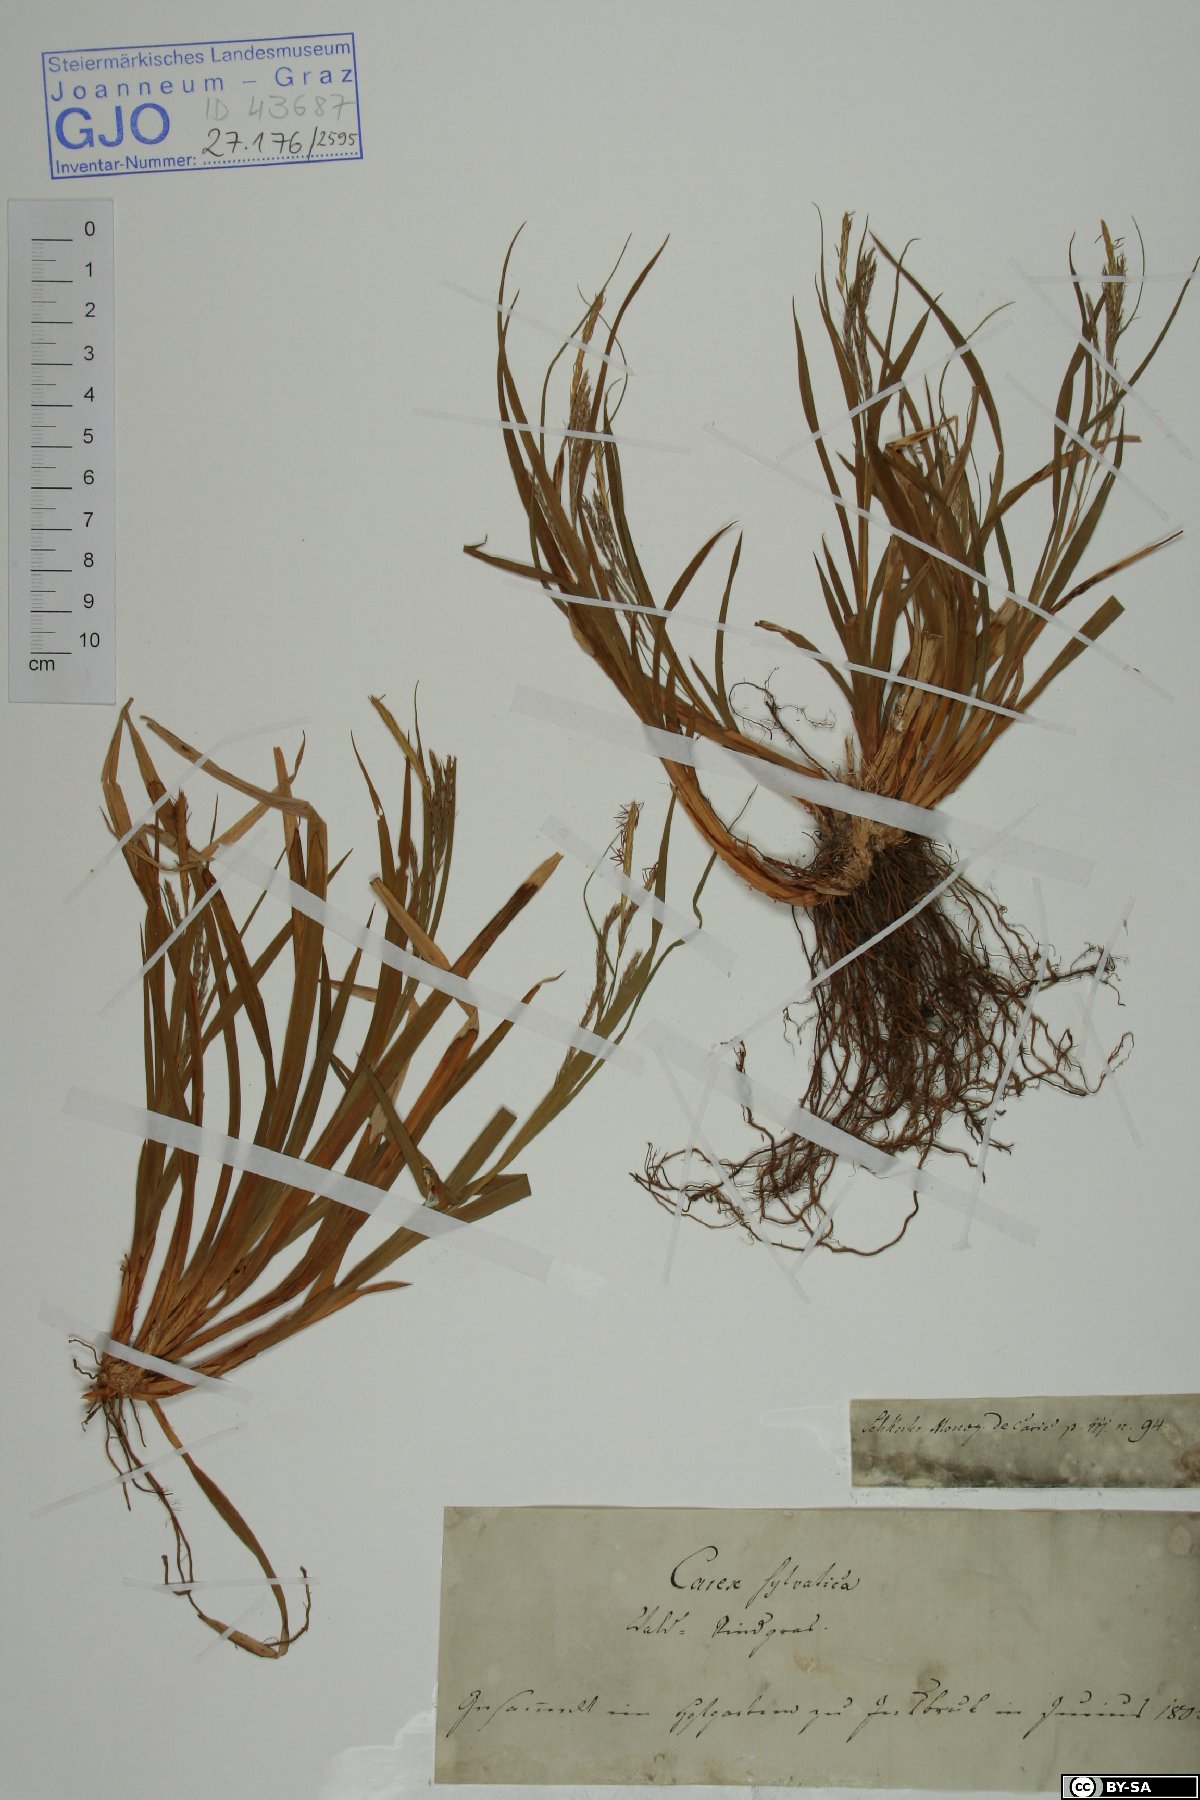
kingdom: Plantae
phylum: Tracheophyta
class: Liliopsida
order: Poales
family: Cyperaceae
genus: Carex
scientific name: Carex sylvatica
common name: Wood-sedge
